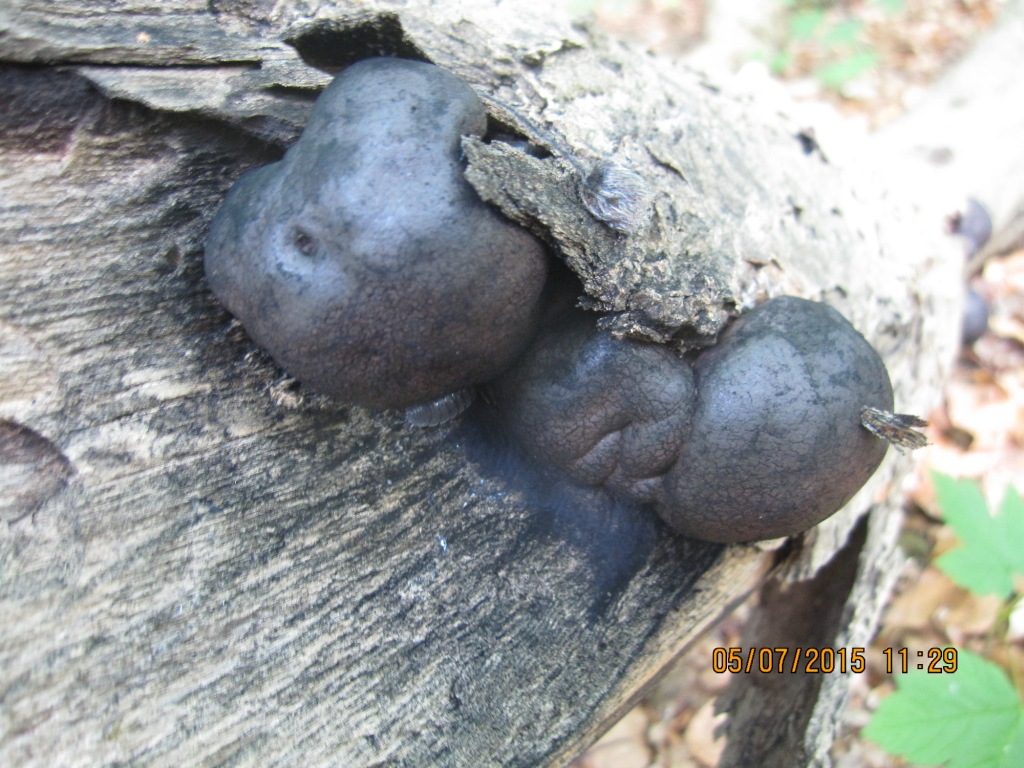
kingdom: Fungi
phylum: Ascomycota
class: Sordariomycetes
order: Xylariales
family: Hypoxylaceae
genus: Daldinia
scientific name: Daldinia concentrica
